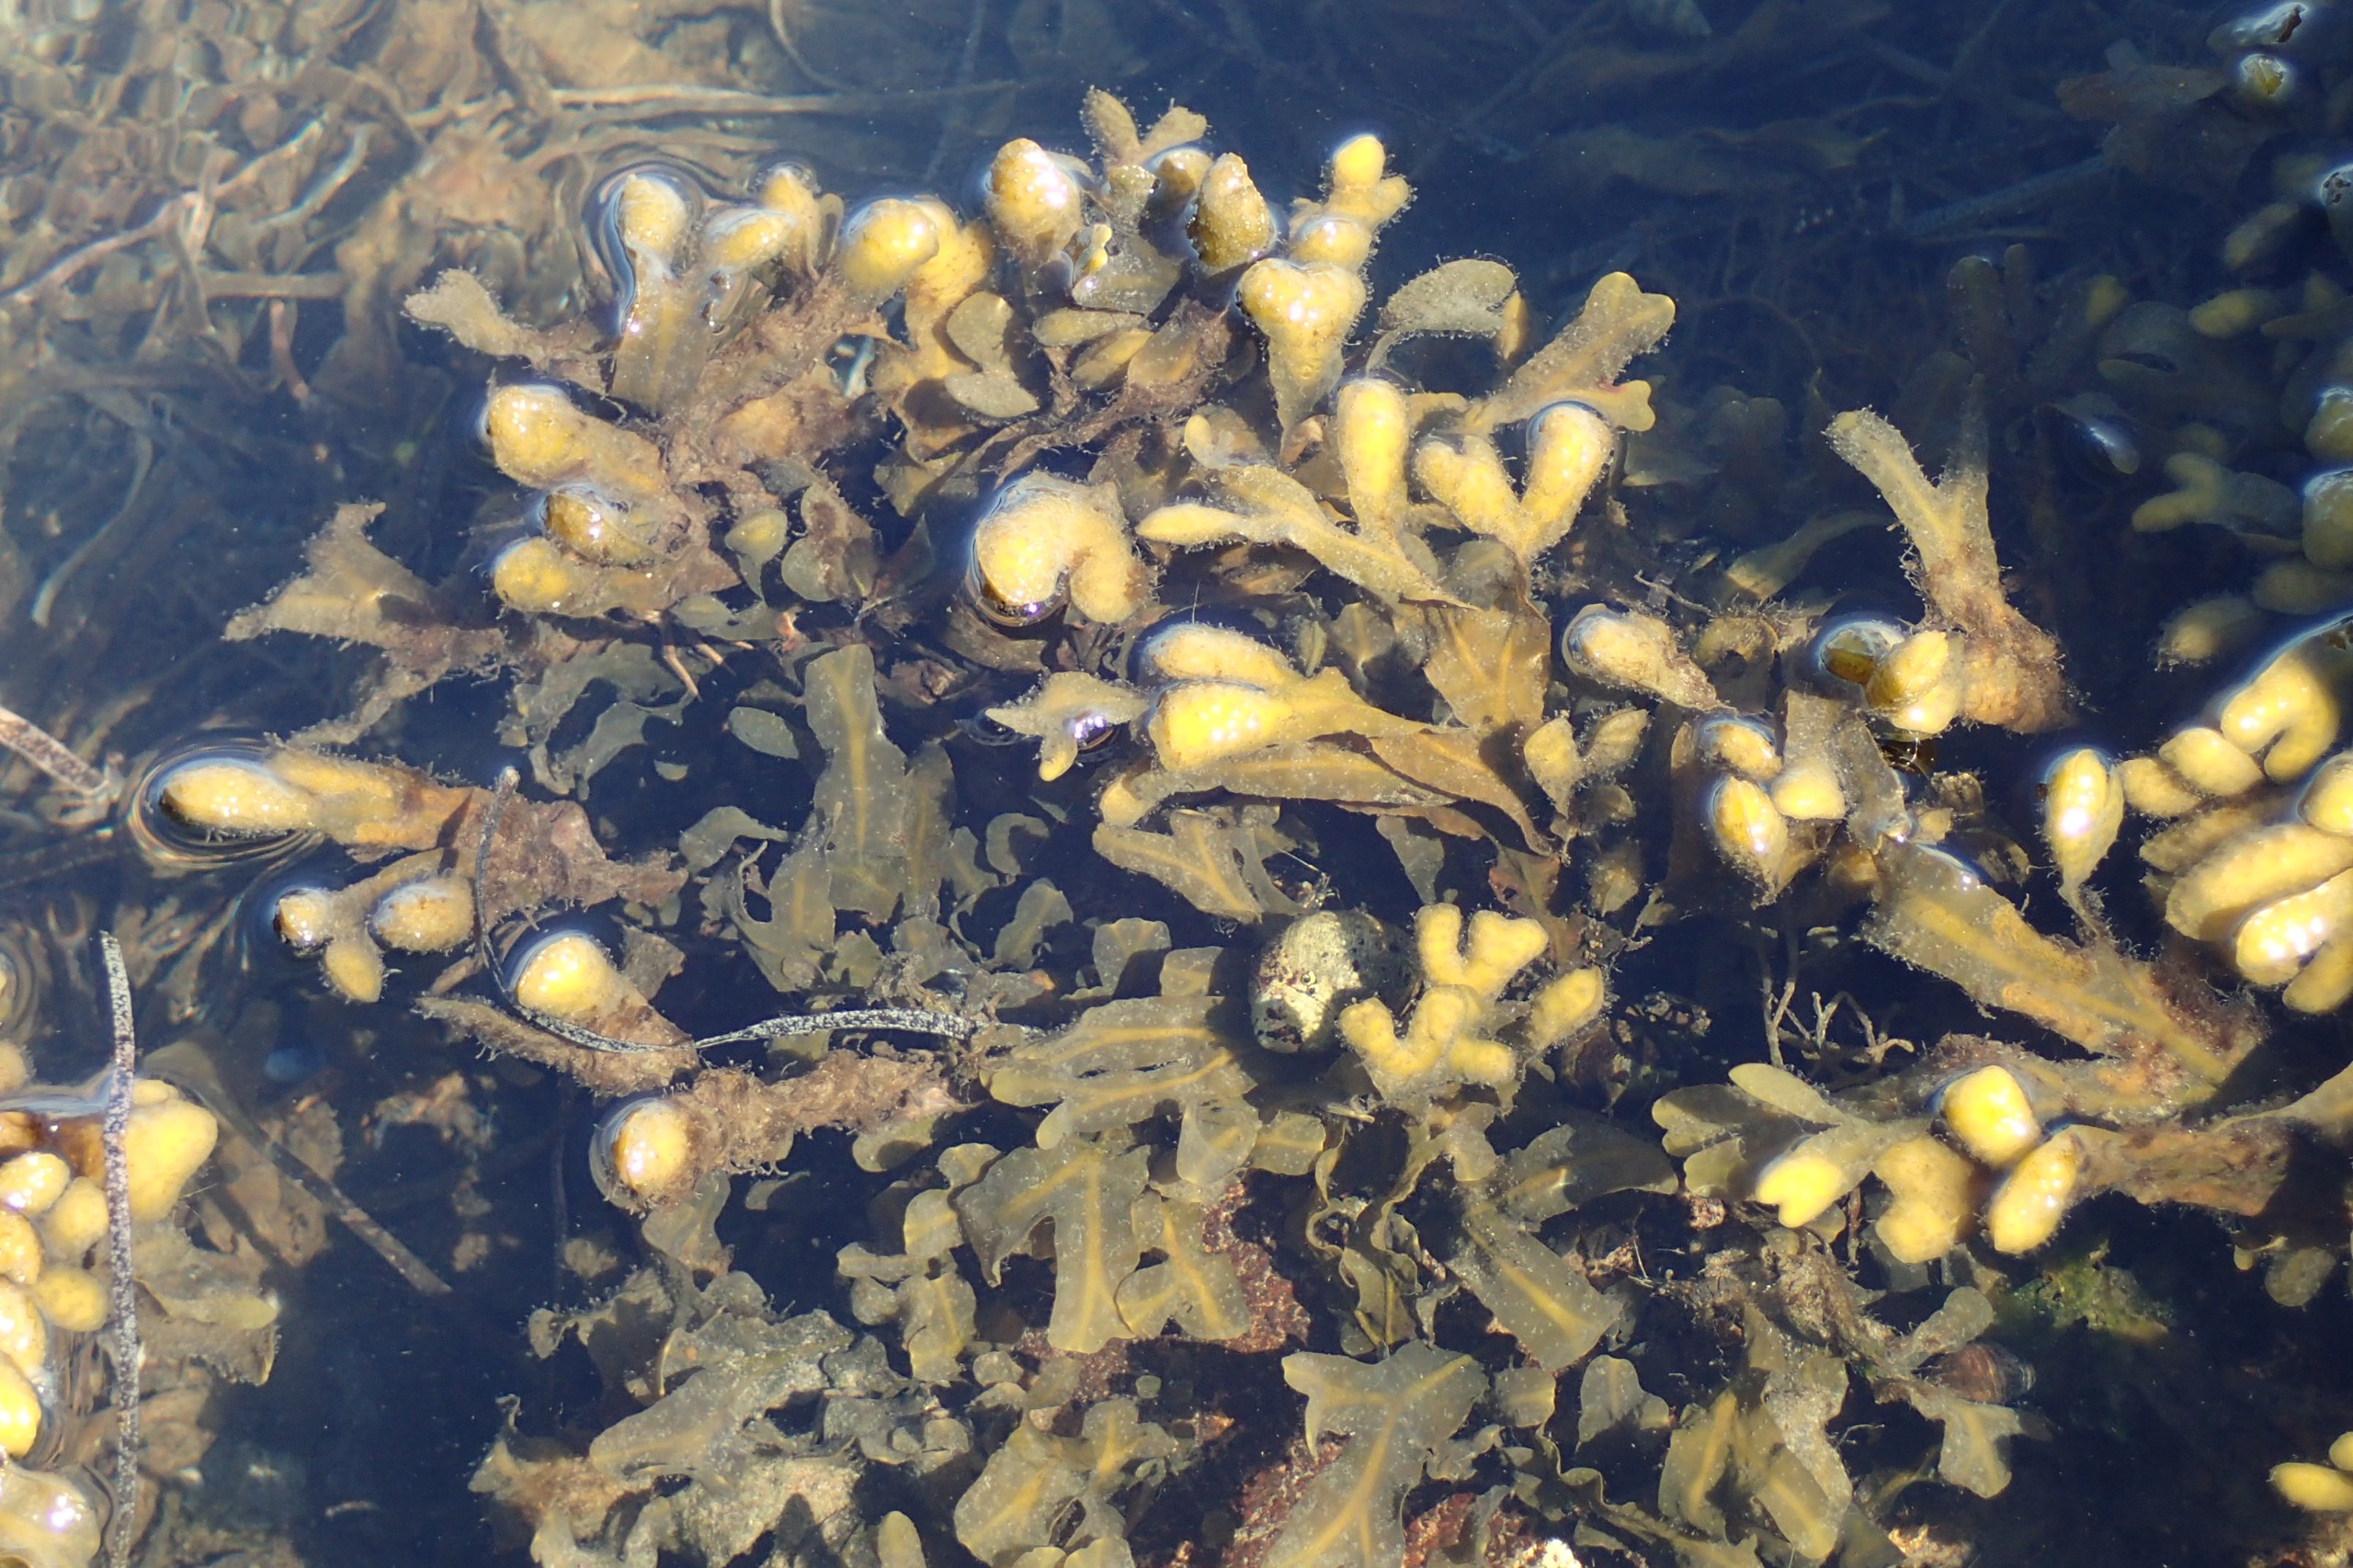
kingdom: Chromista
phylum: Ochrophyta
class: Phaeophyceae
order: Fucales
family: Fucaceae
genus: Fucus
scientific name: Fucus vesiculosus
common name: Blæretang
